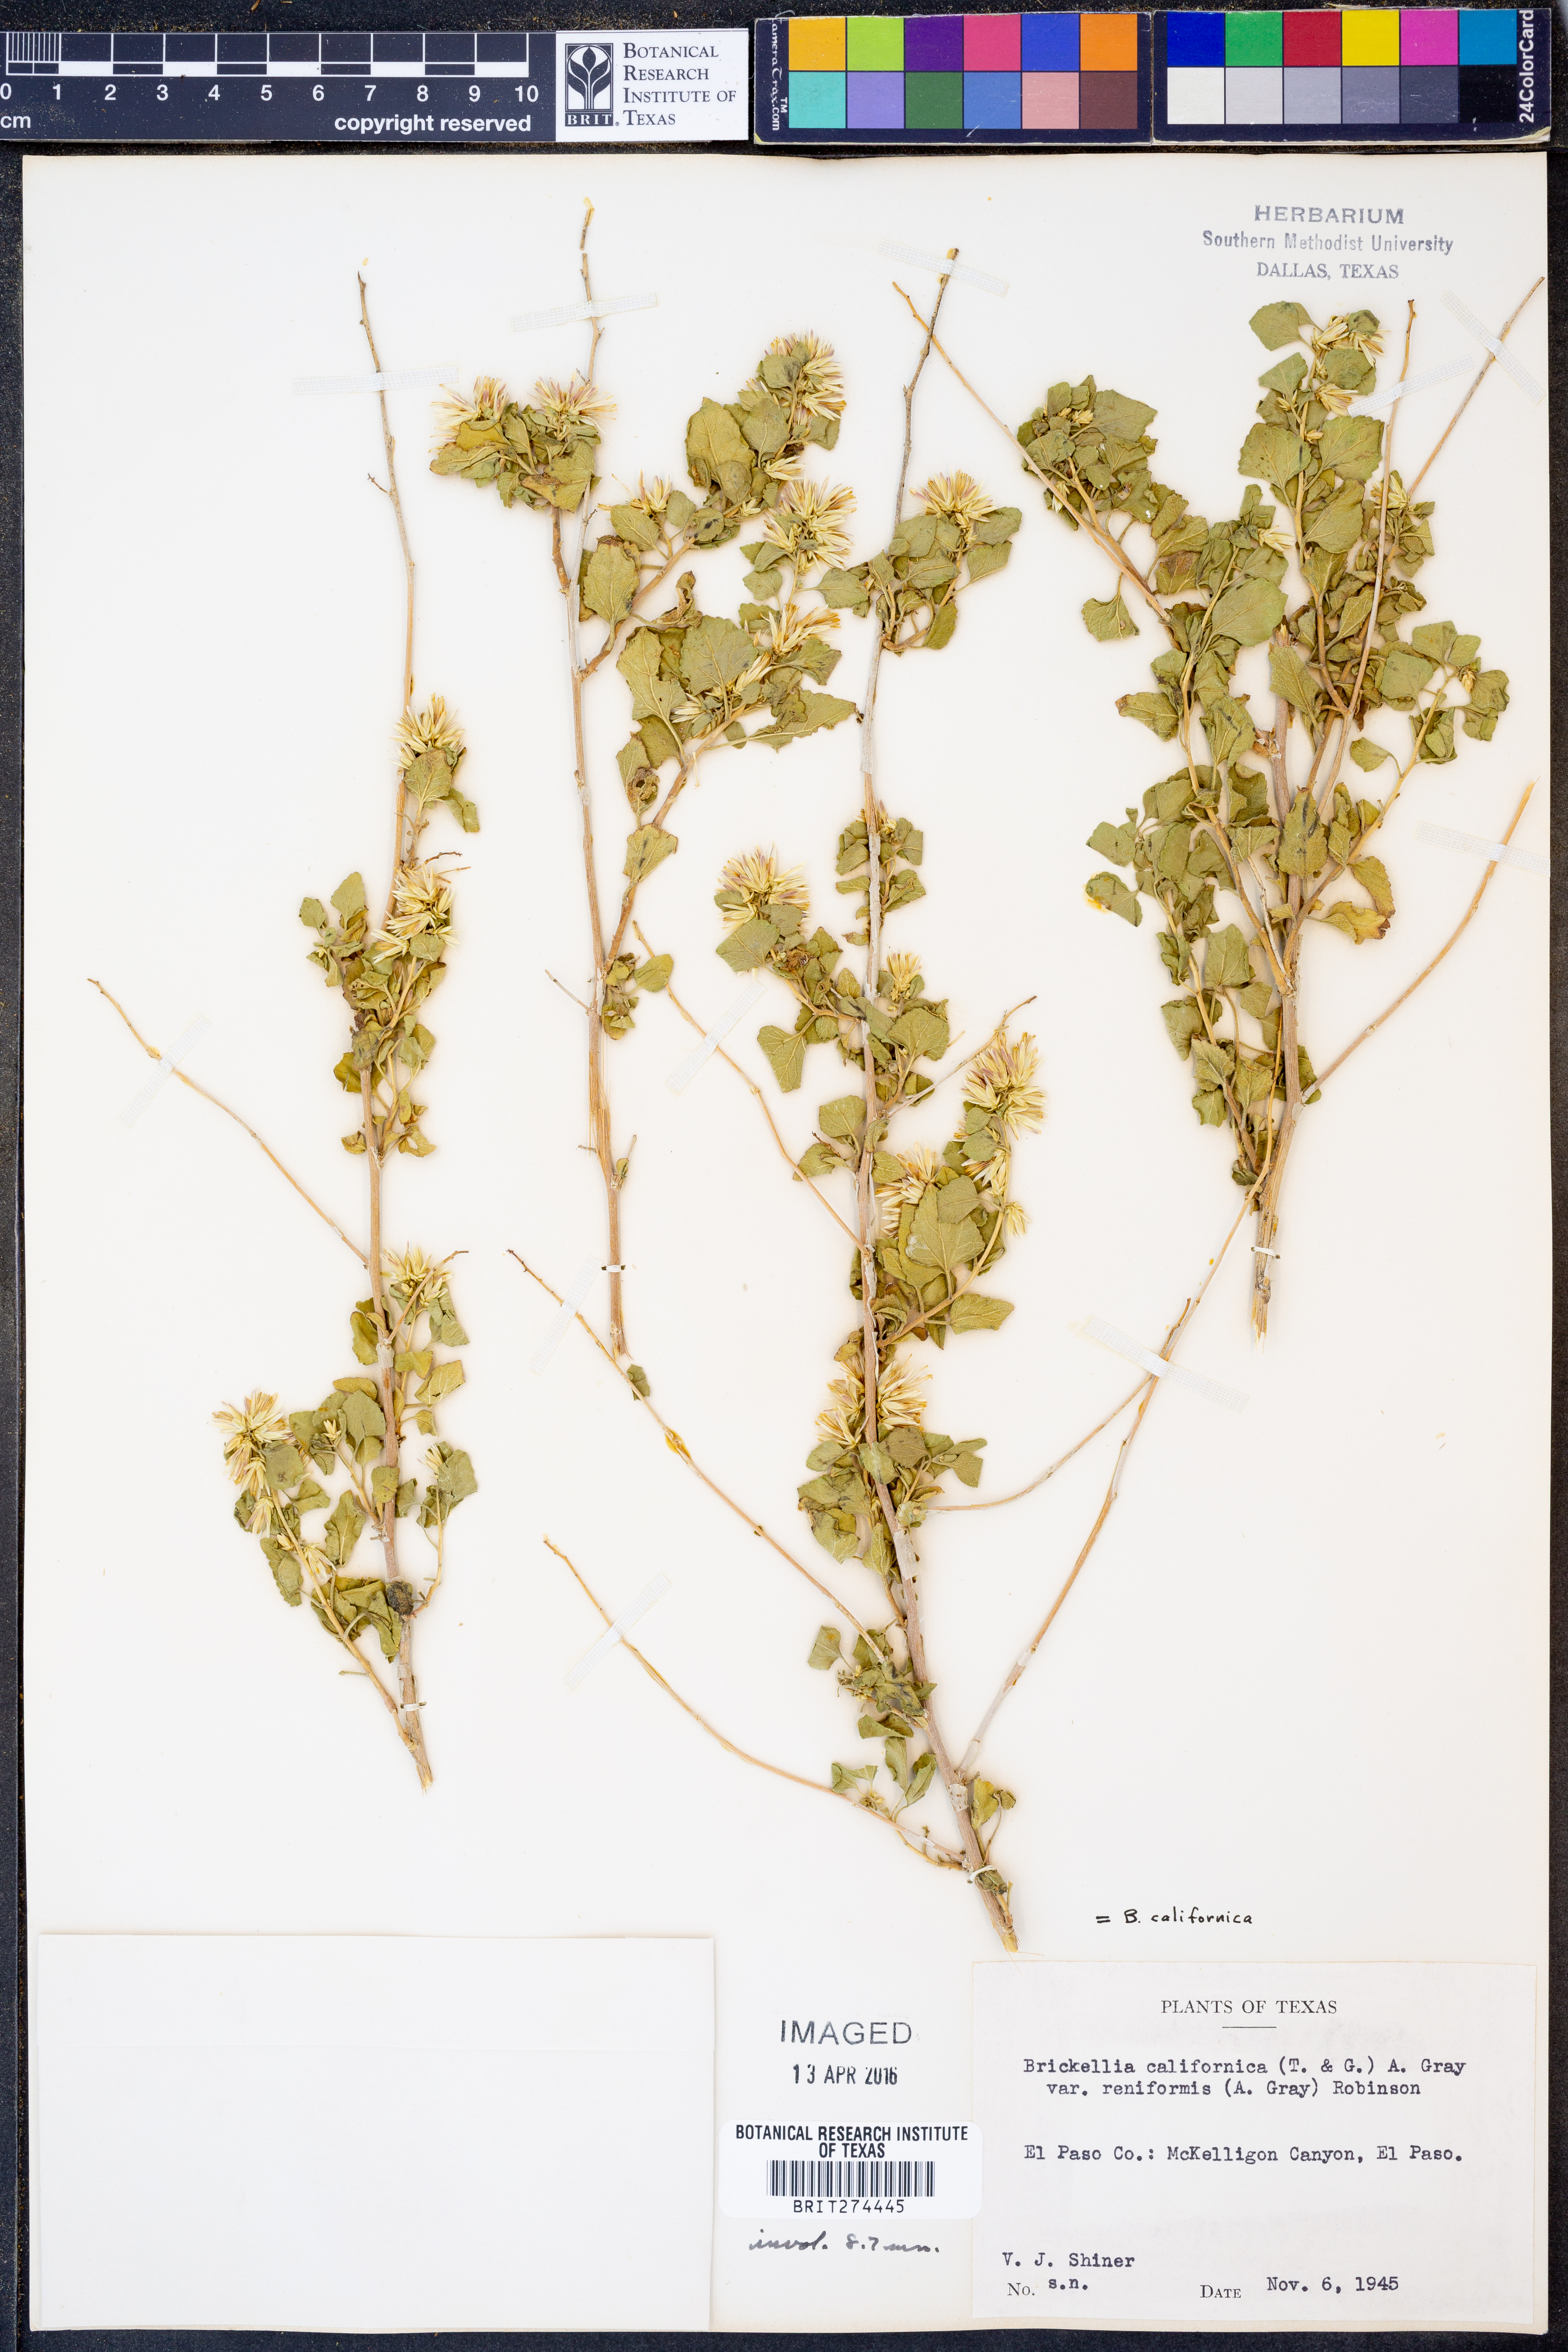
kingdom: Plantae
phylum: Tracheophyta
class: Magnoliopsida
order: Asterales
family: Asteraceae
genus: Brickellia
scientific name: Brickellia californica
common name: California brickellbush
